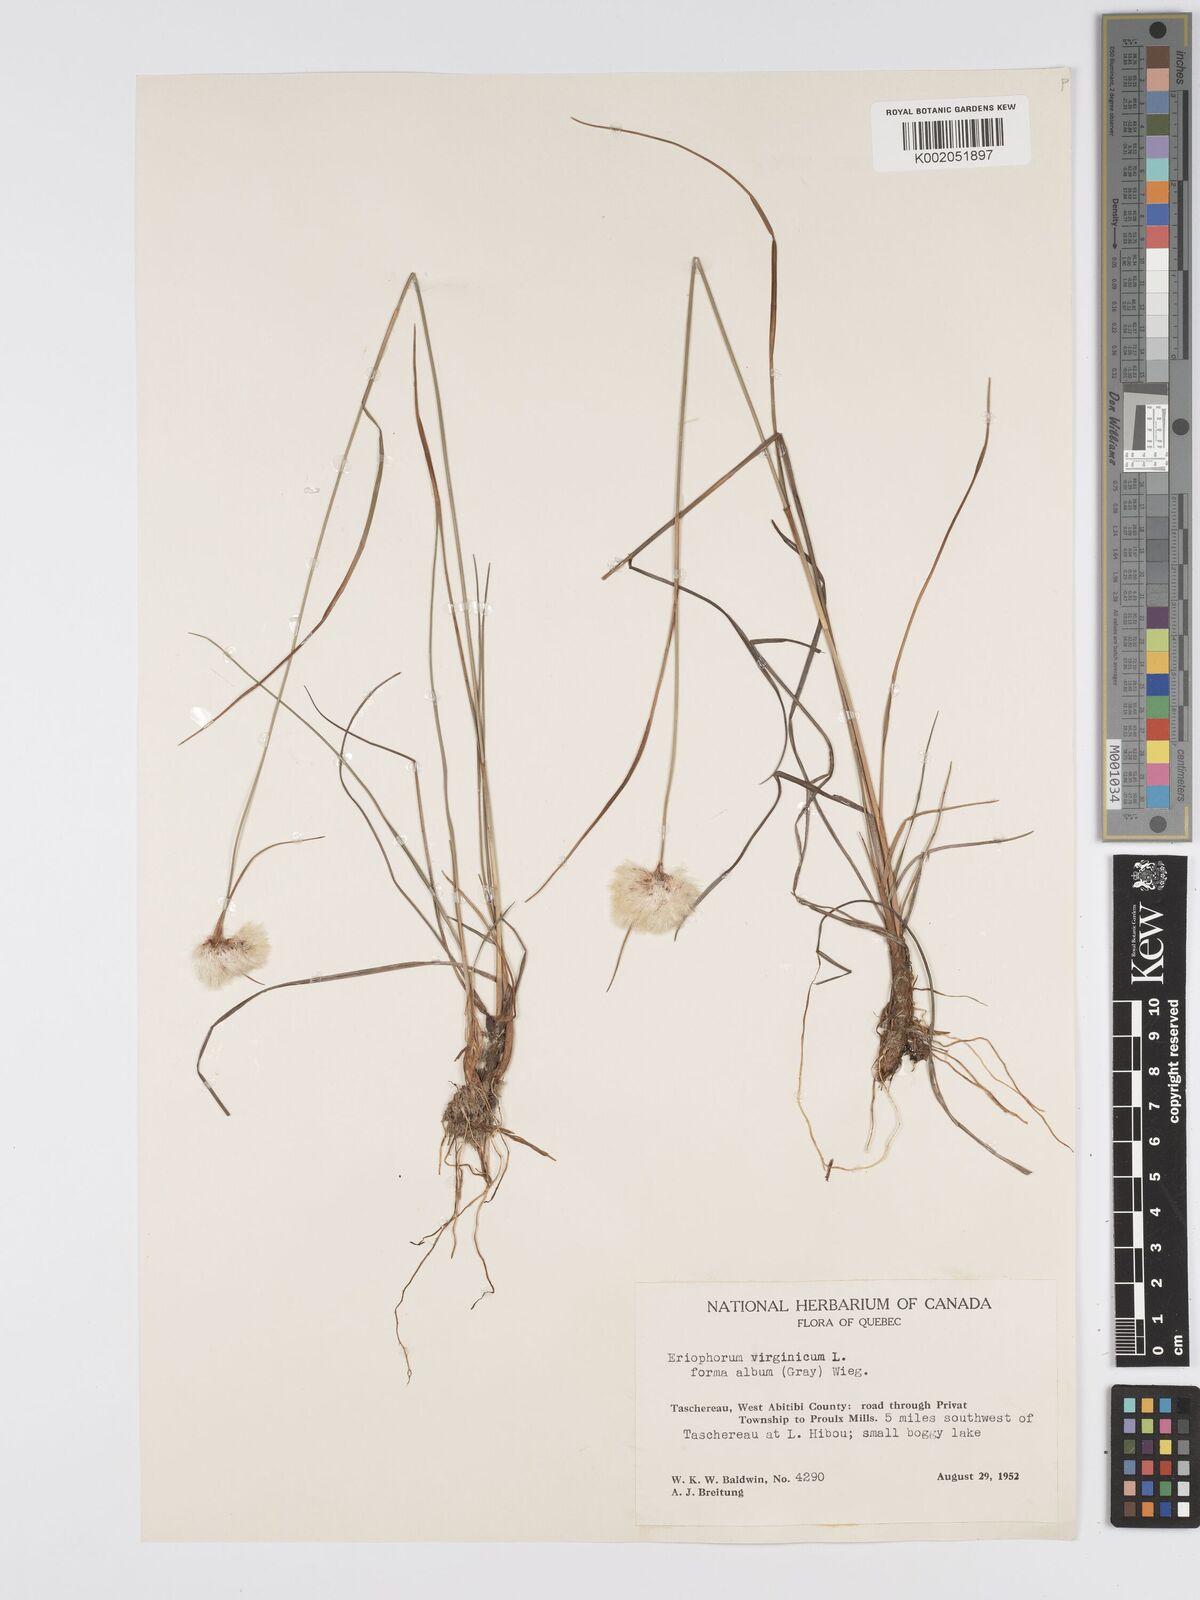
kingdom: Plantae
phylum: Tracheophyta
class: Liliopsida
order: Poales
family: Cyperaceae
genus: Eriophorum
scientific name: Eriophorum virginicum
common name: Tawny cottongrass
